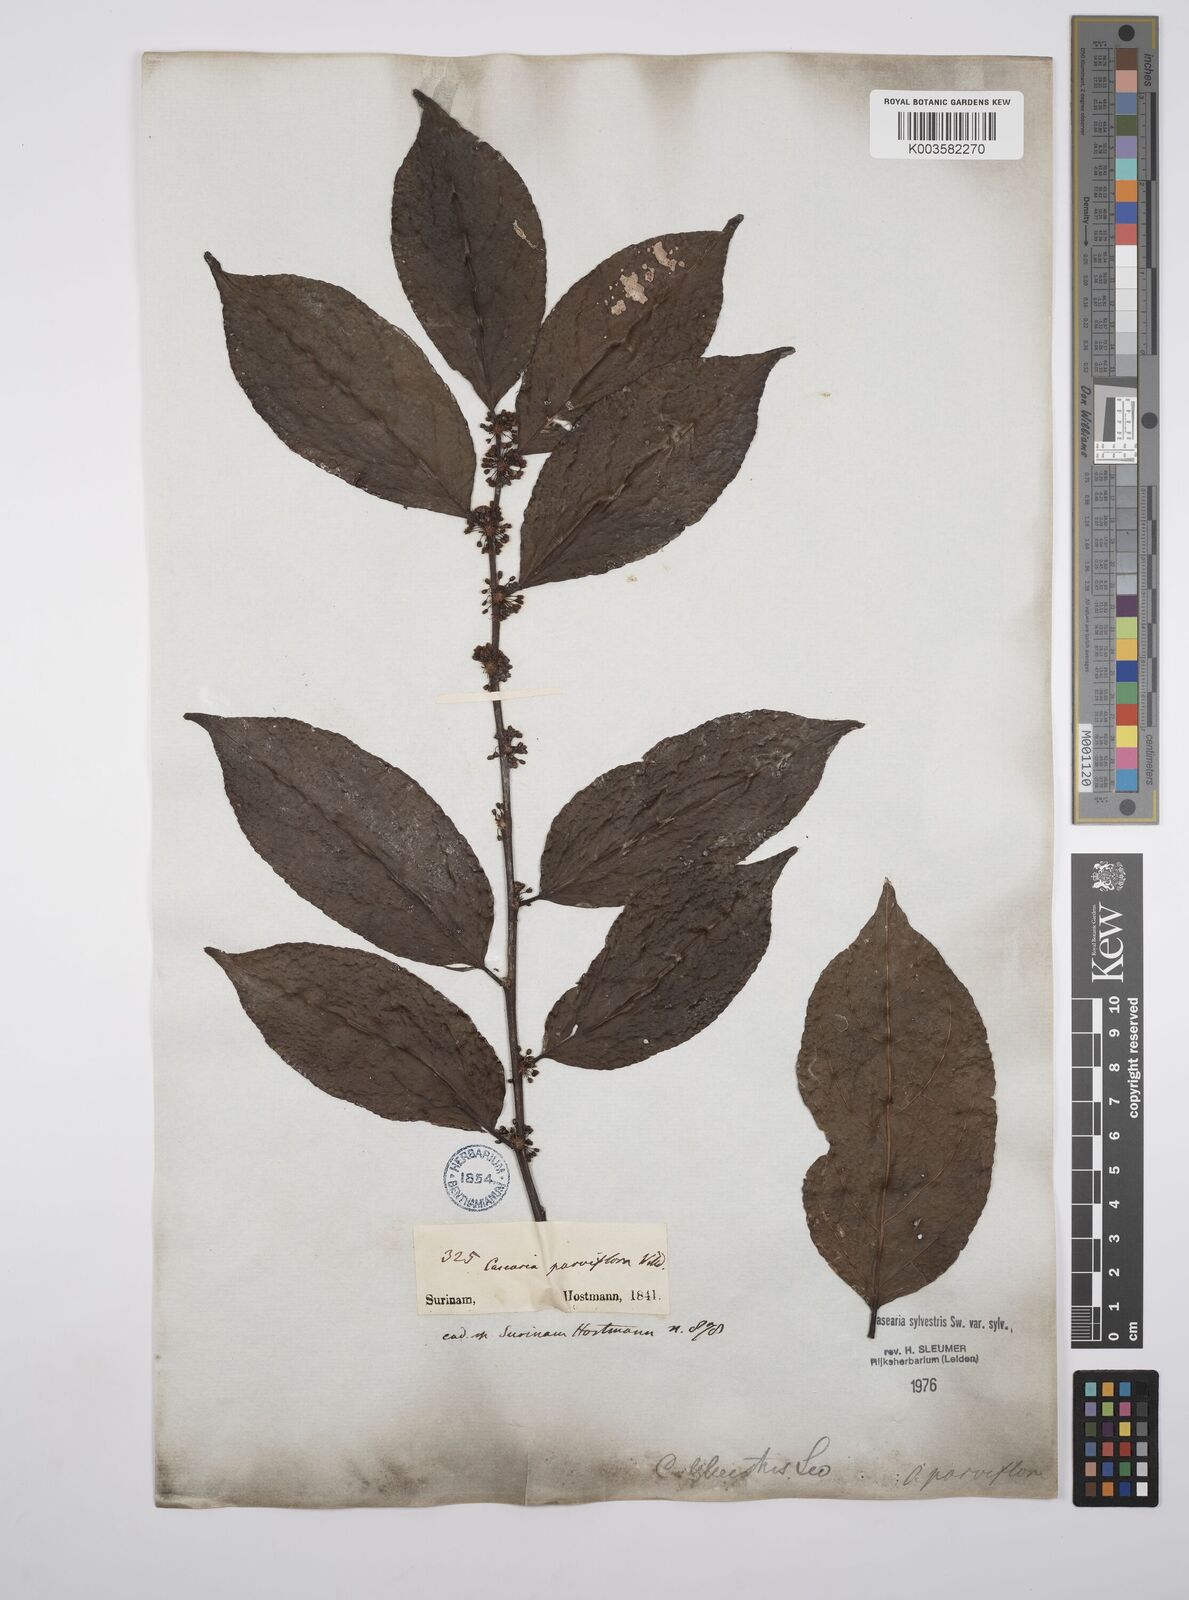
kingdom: Plantae
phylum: Tracheophyta
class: Magnoliopsida
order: Malpighiales
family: Salicaceae
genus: Casearia
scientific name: Casearia sylvestris
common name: Wild sage
